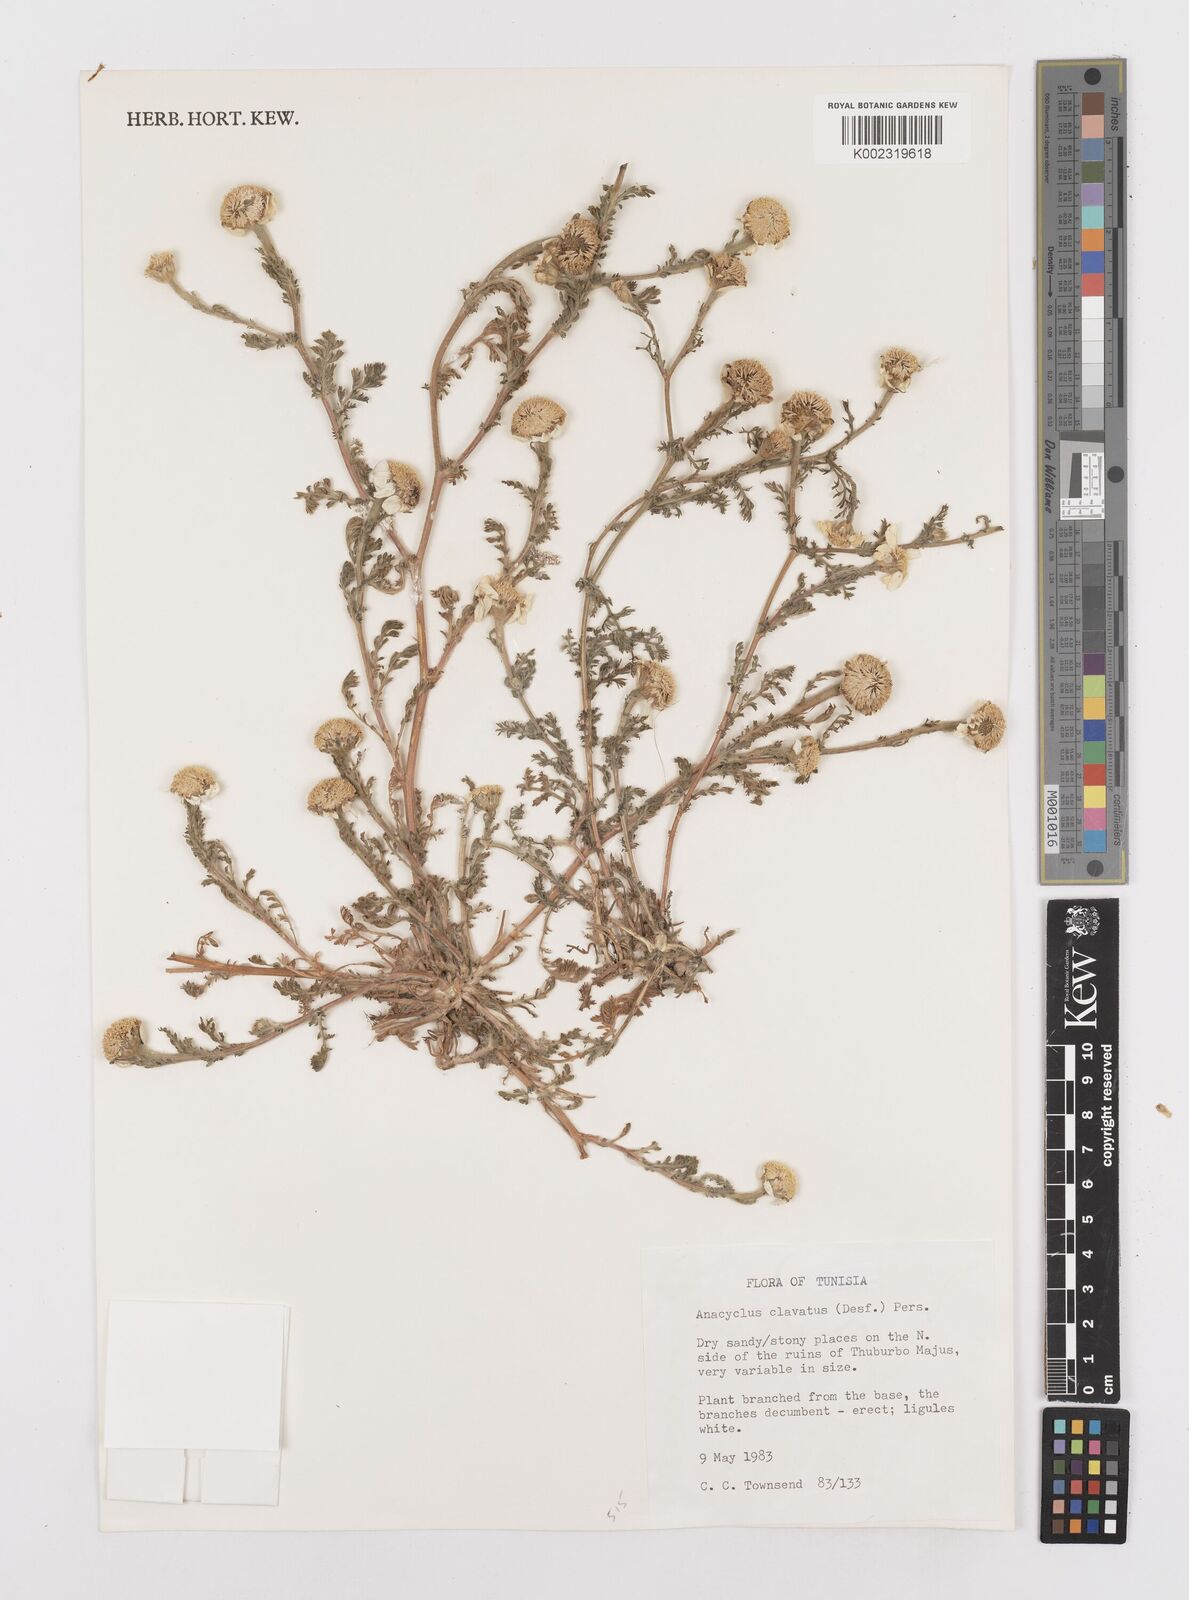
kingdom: Plantae
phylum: Tracheophyta
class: Magnoliopsida
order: Asterales
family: Asteraceae
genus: Anacyclus
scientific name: Anacyclus clavatus
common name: Whitebuttons
